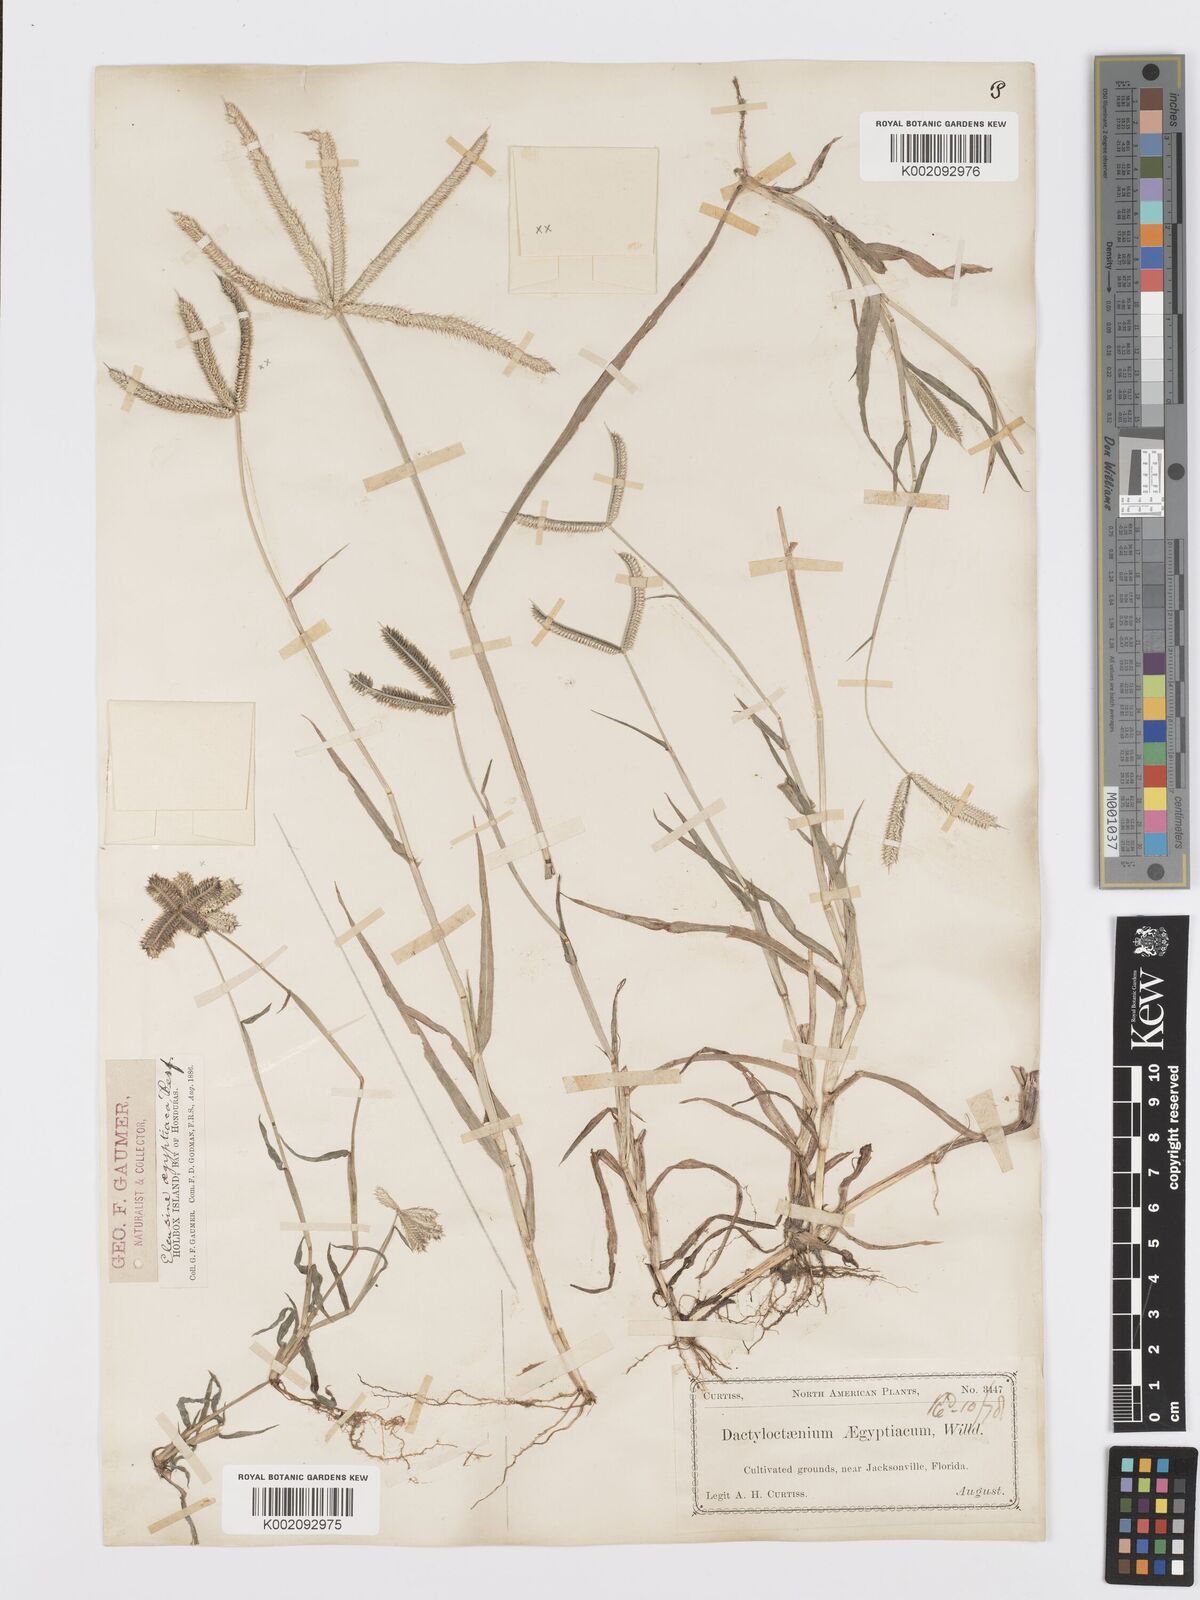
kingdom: Plantae
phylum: Tracheophyta
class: Liliopsida
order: Poales
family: Poaceae
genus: Dactyloctenium
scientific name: Dactyloctenium aegyptium
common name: Egyptian grass
